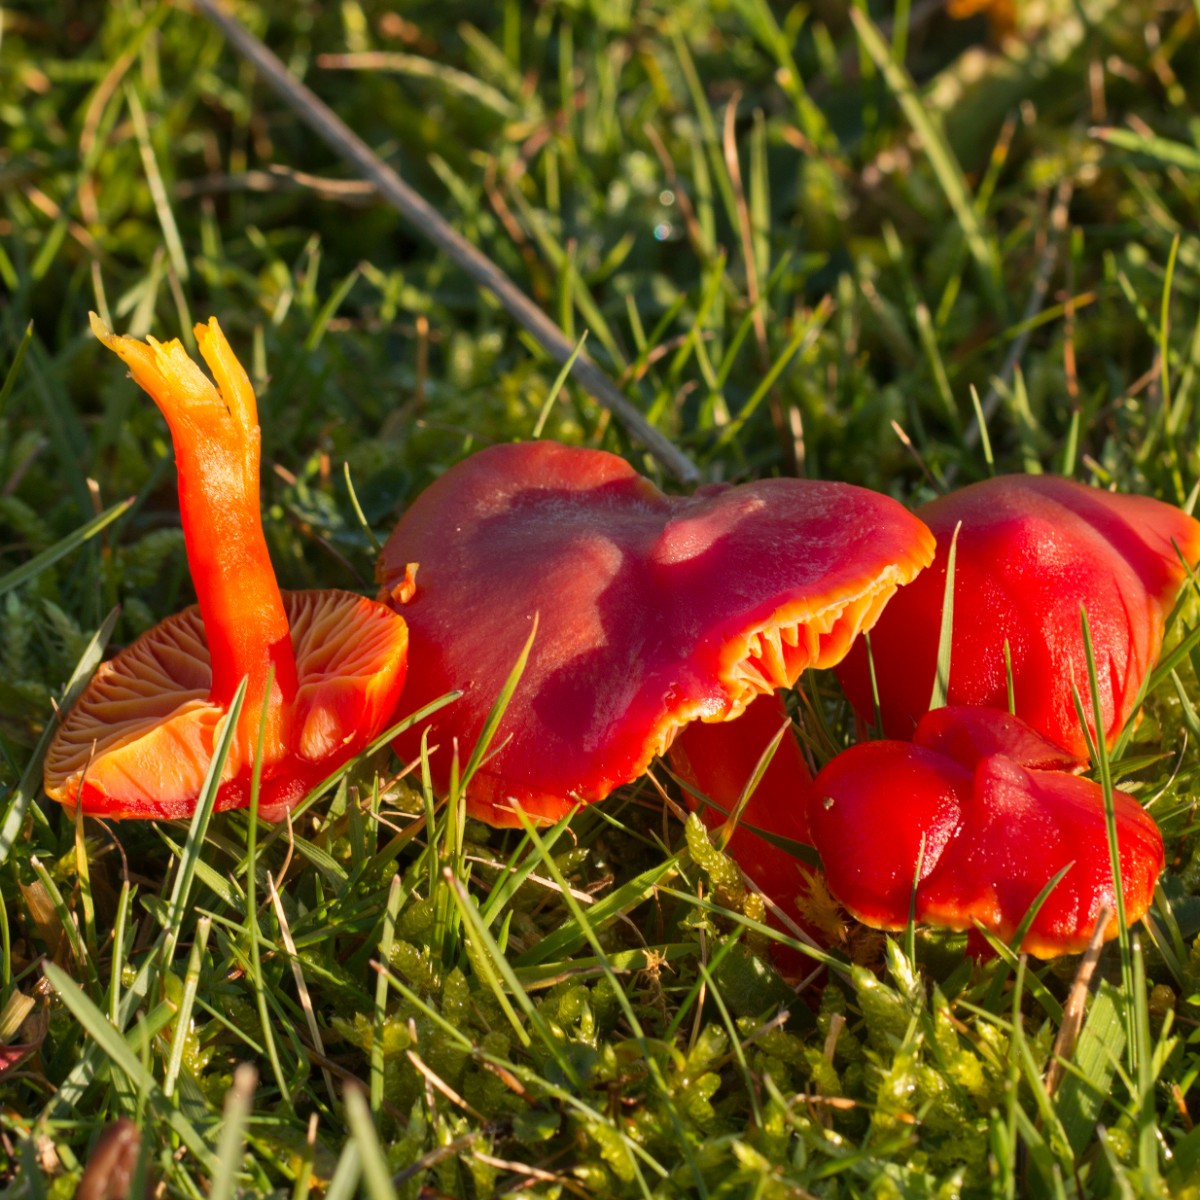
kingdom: Fungi
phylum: Basidiomycota
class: Agaricomycetes
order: Agaricales
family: Hygrophoraceae
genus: Hygrocybe
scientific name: Hygrocybe coccinea
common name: cinnober-vokshat
